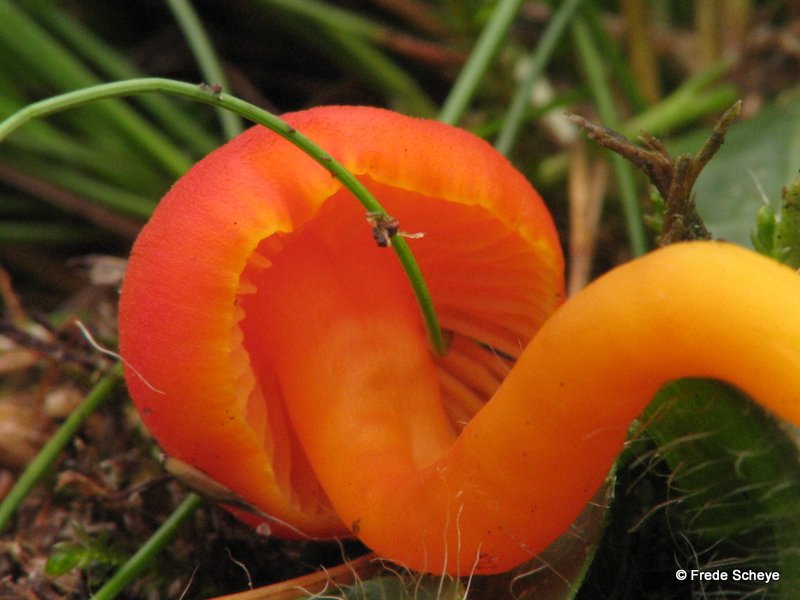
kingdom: Fungi
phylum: Basidiomycota
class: Agaricomycetes
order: Agaricales
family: Hygrophoraceae
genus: Hygrocybe
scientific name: Hygrocybe miniata
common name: mønje-vokshat
